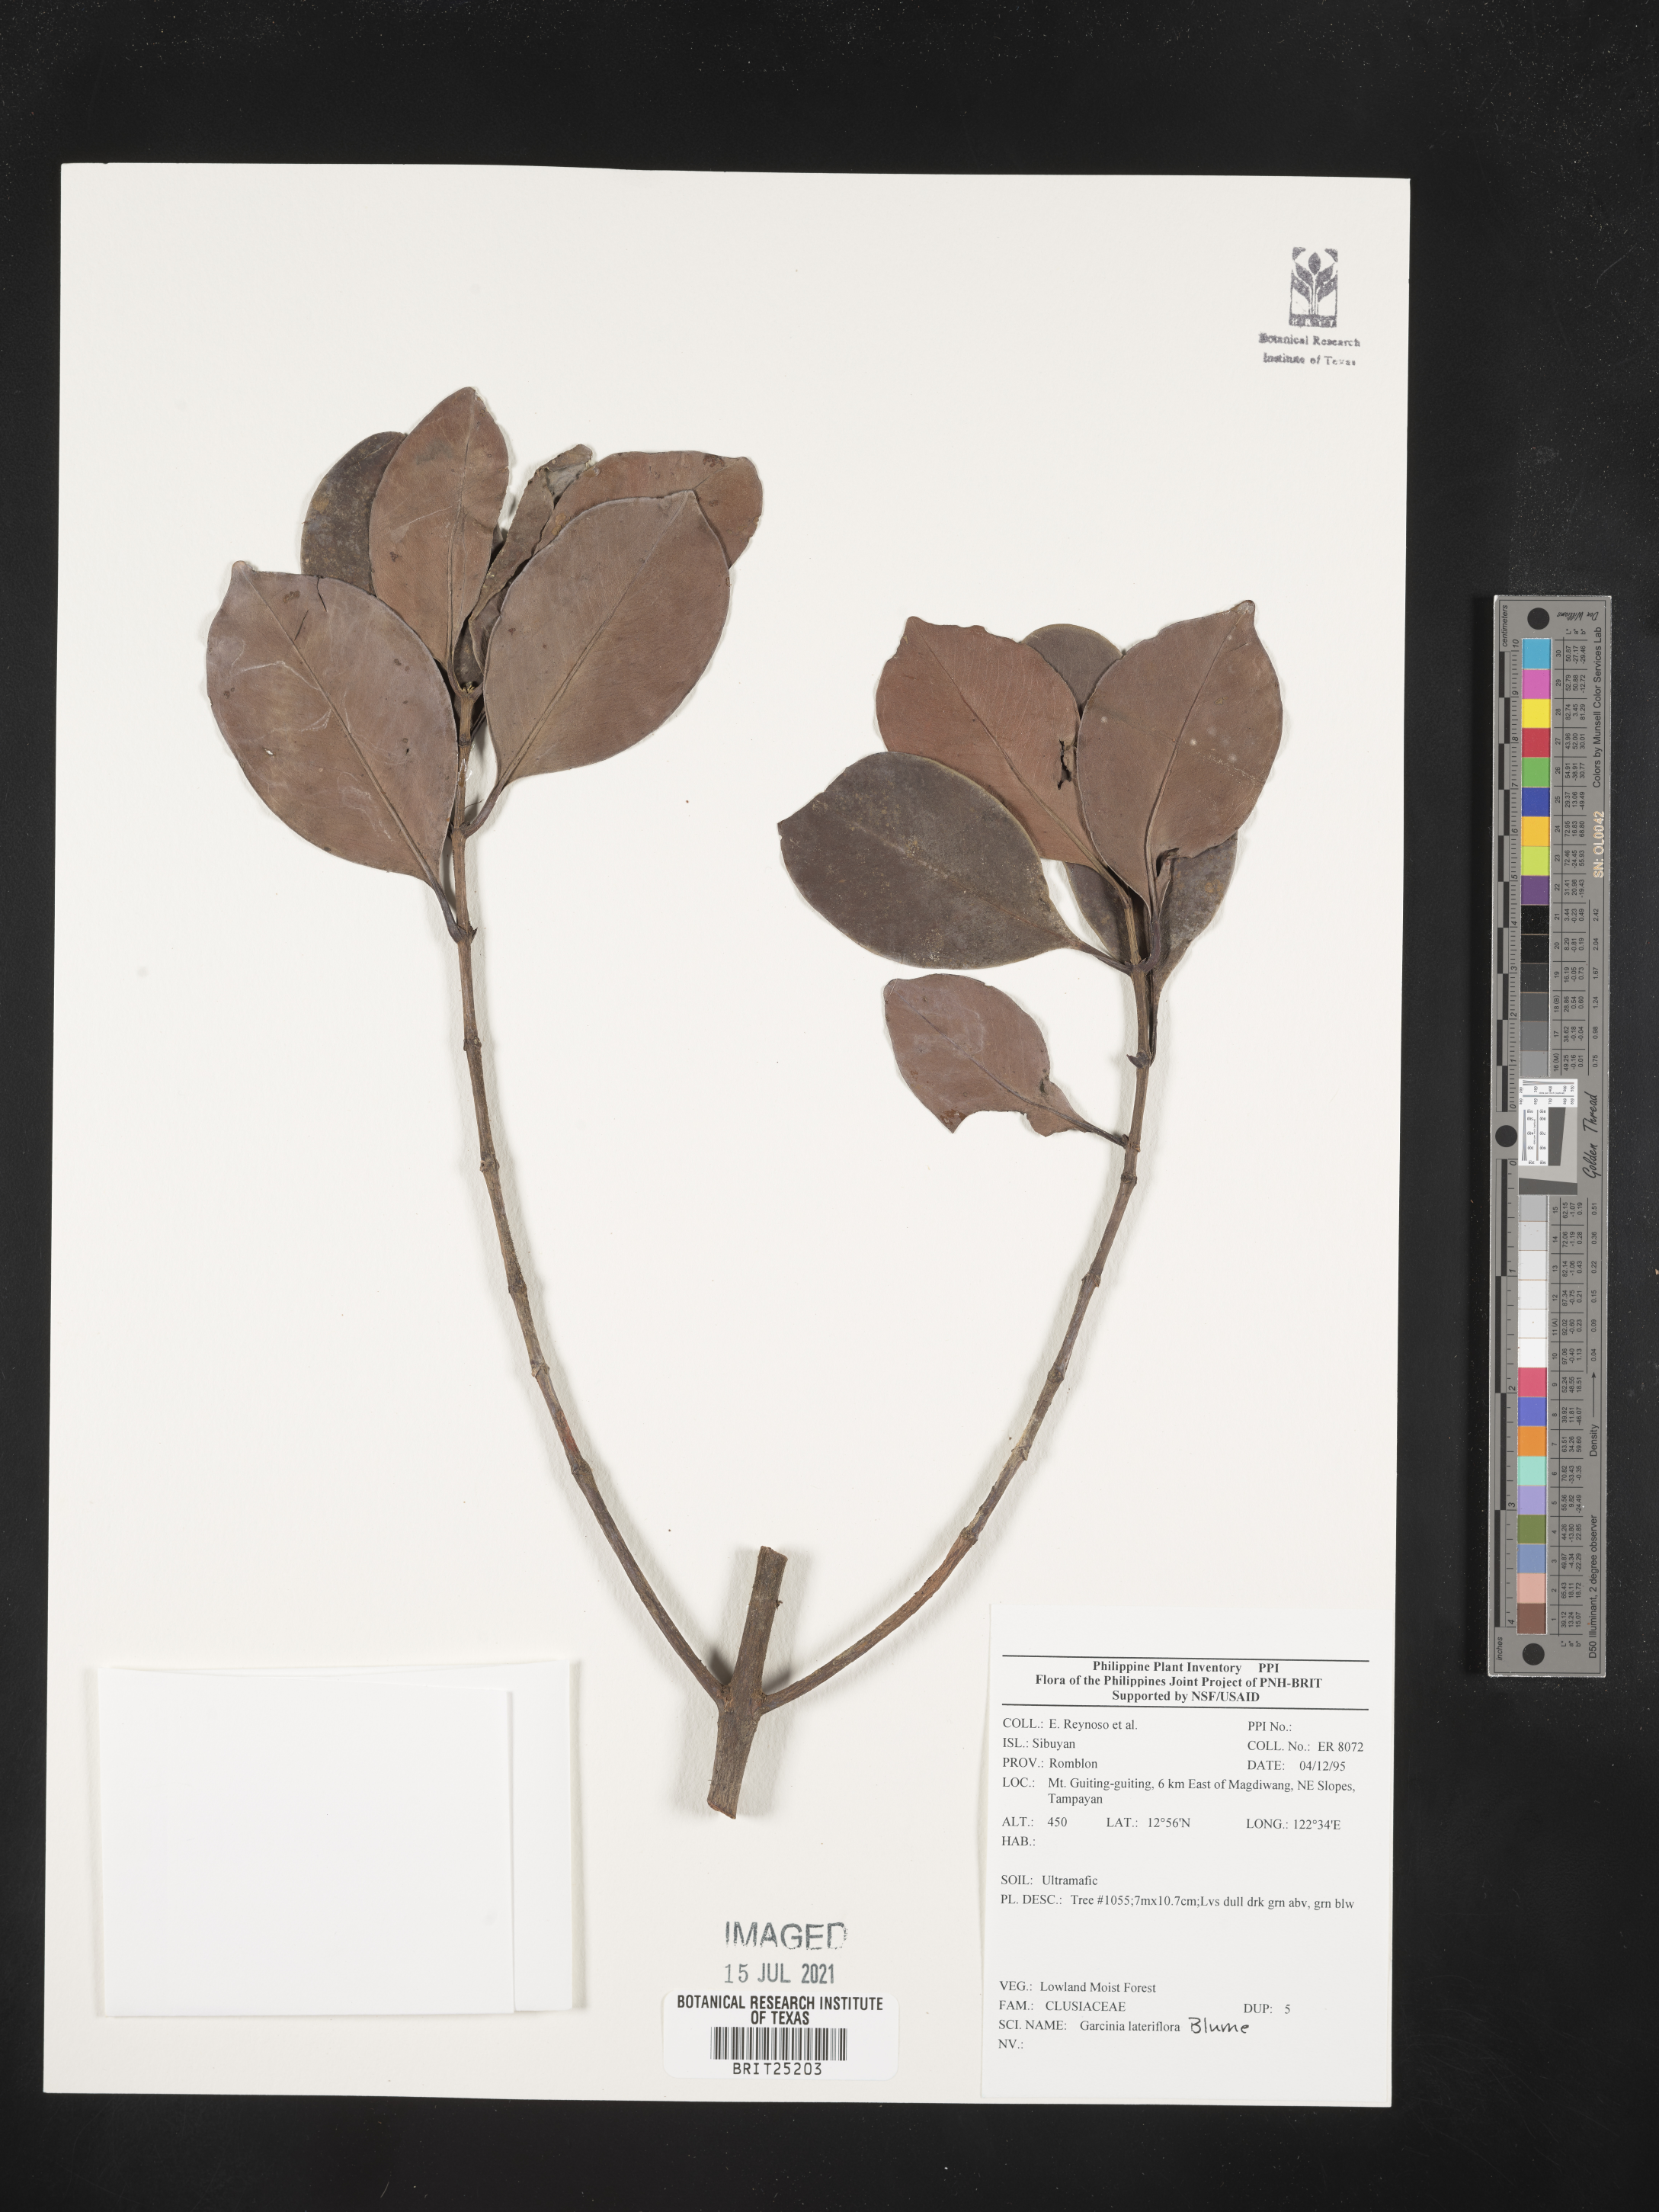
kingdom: Plantae
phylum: Tracheophyta
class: Magnoliopsida
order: Malpighiales
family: Clusiaceae
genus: Garcinia
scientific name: Garcinia lateriflora
